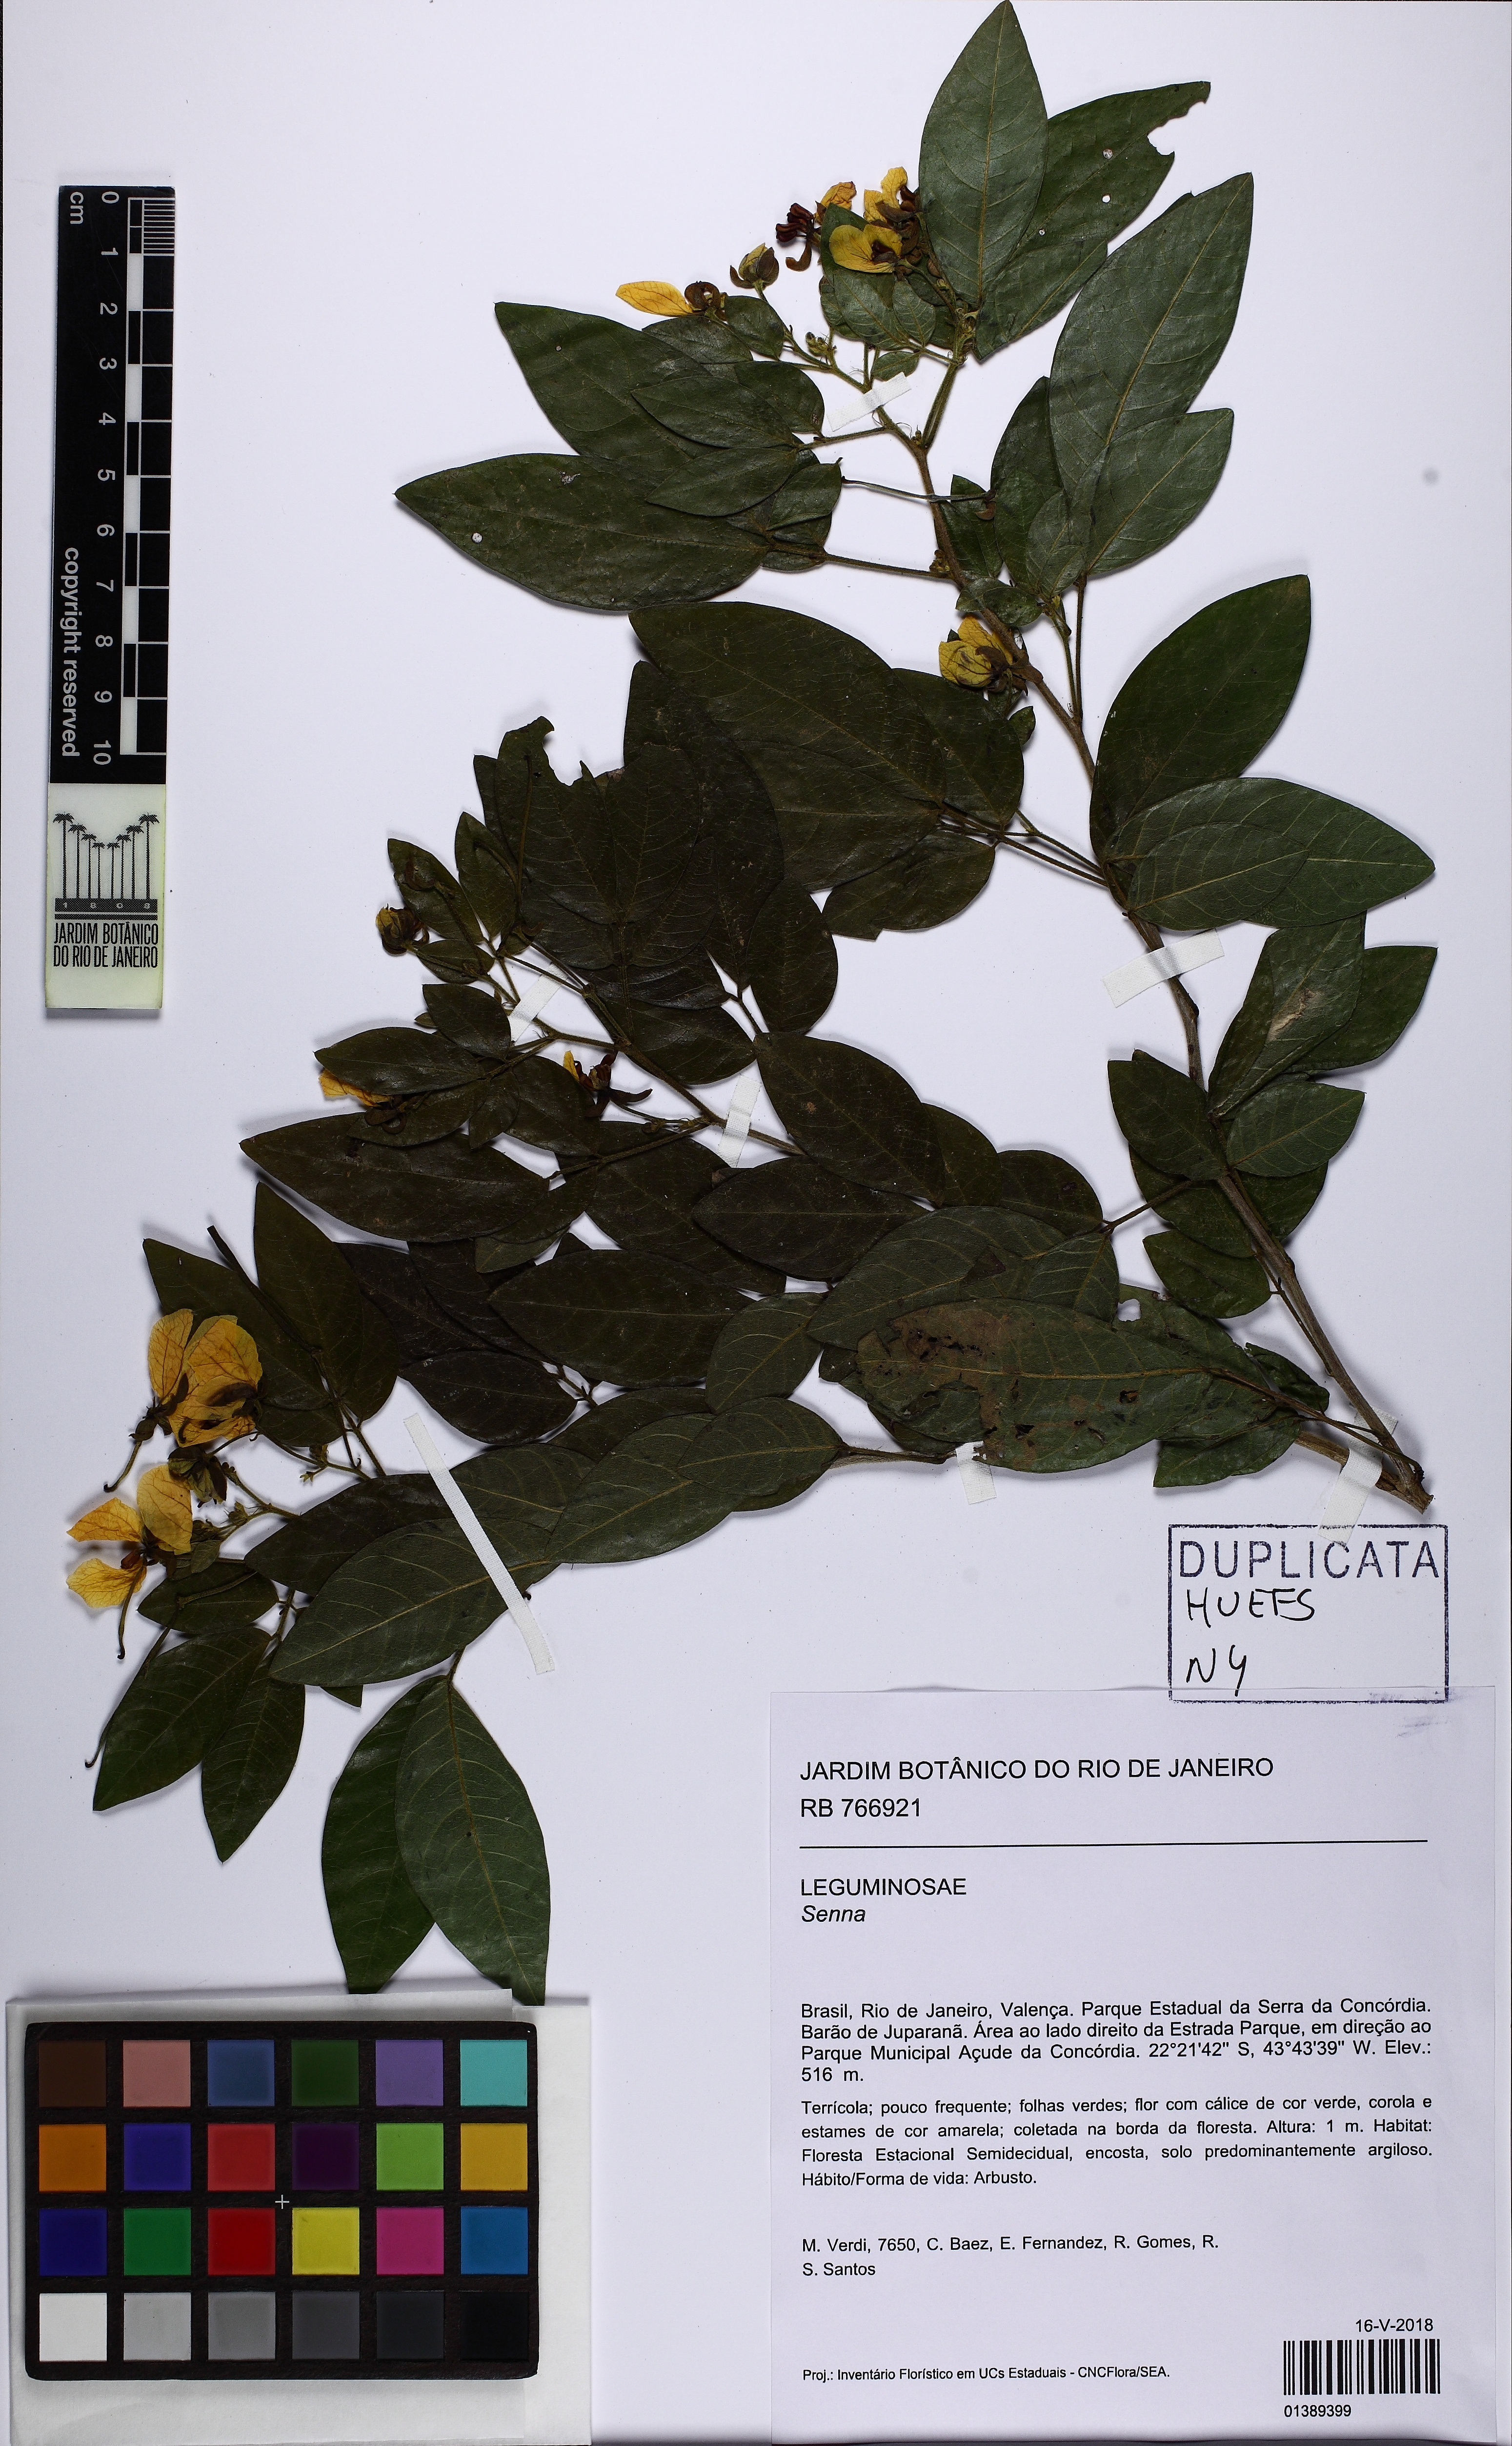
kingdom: Plantae
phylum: Tracheophyta
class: Magnoliopsida
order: Fabales
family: Fabaceae
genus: Senna
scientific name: Senna tenuifolia
